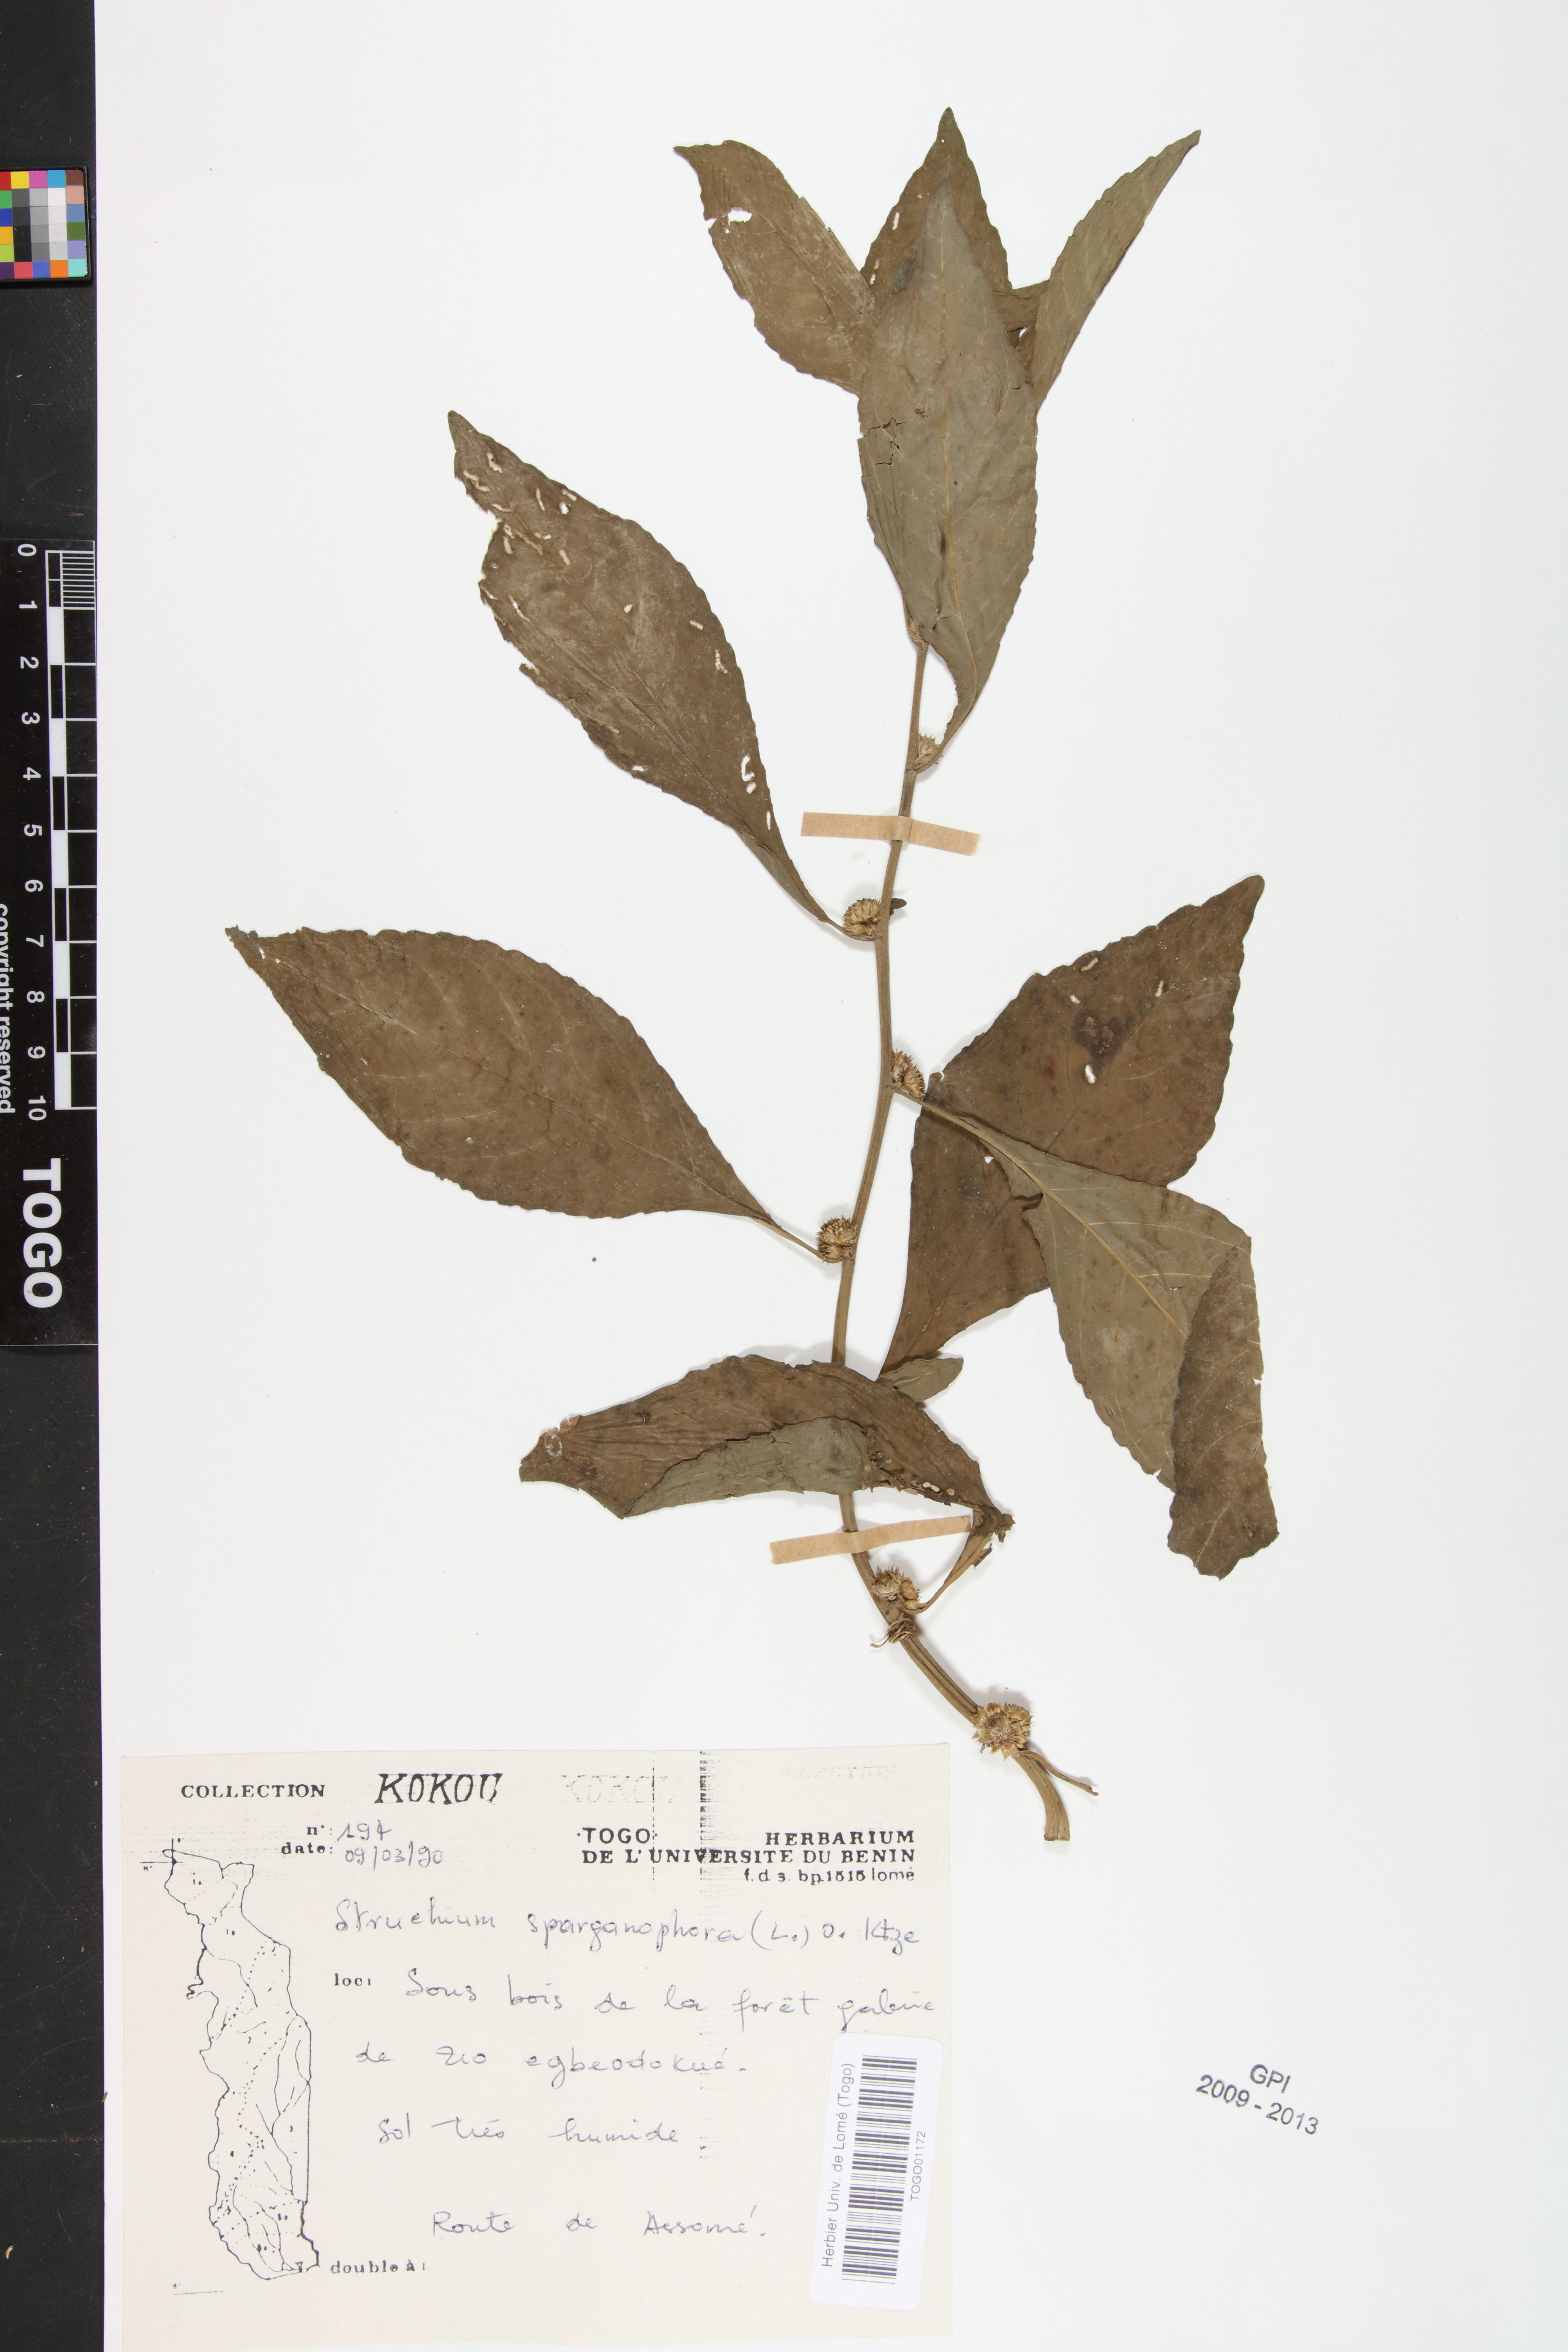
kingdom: Plantae
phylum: Tracheophyta
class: Magnoliopsida
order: Asterales
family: Asteraceae
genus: Struchium
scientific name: Struchium sparganophorum
